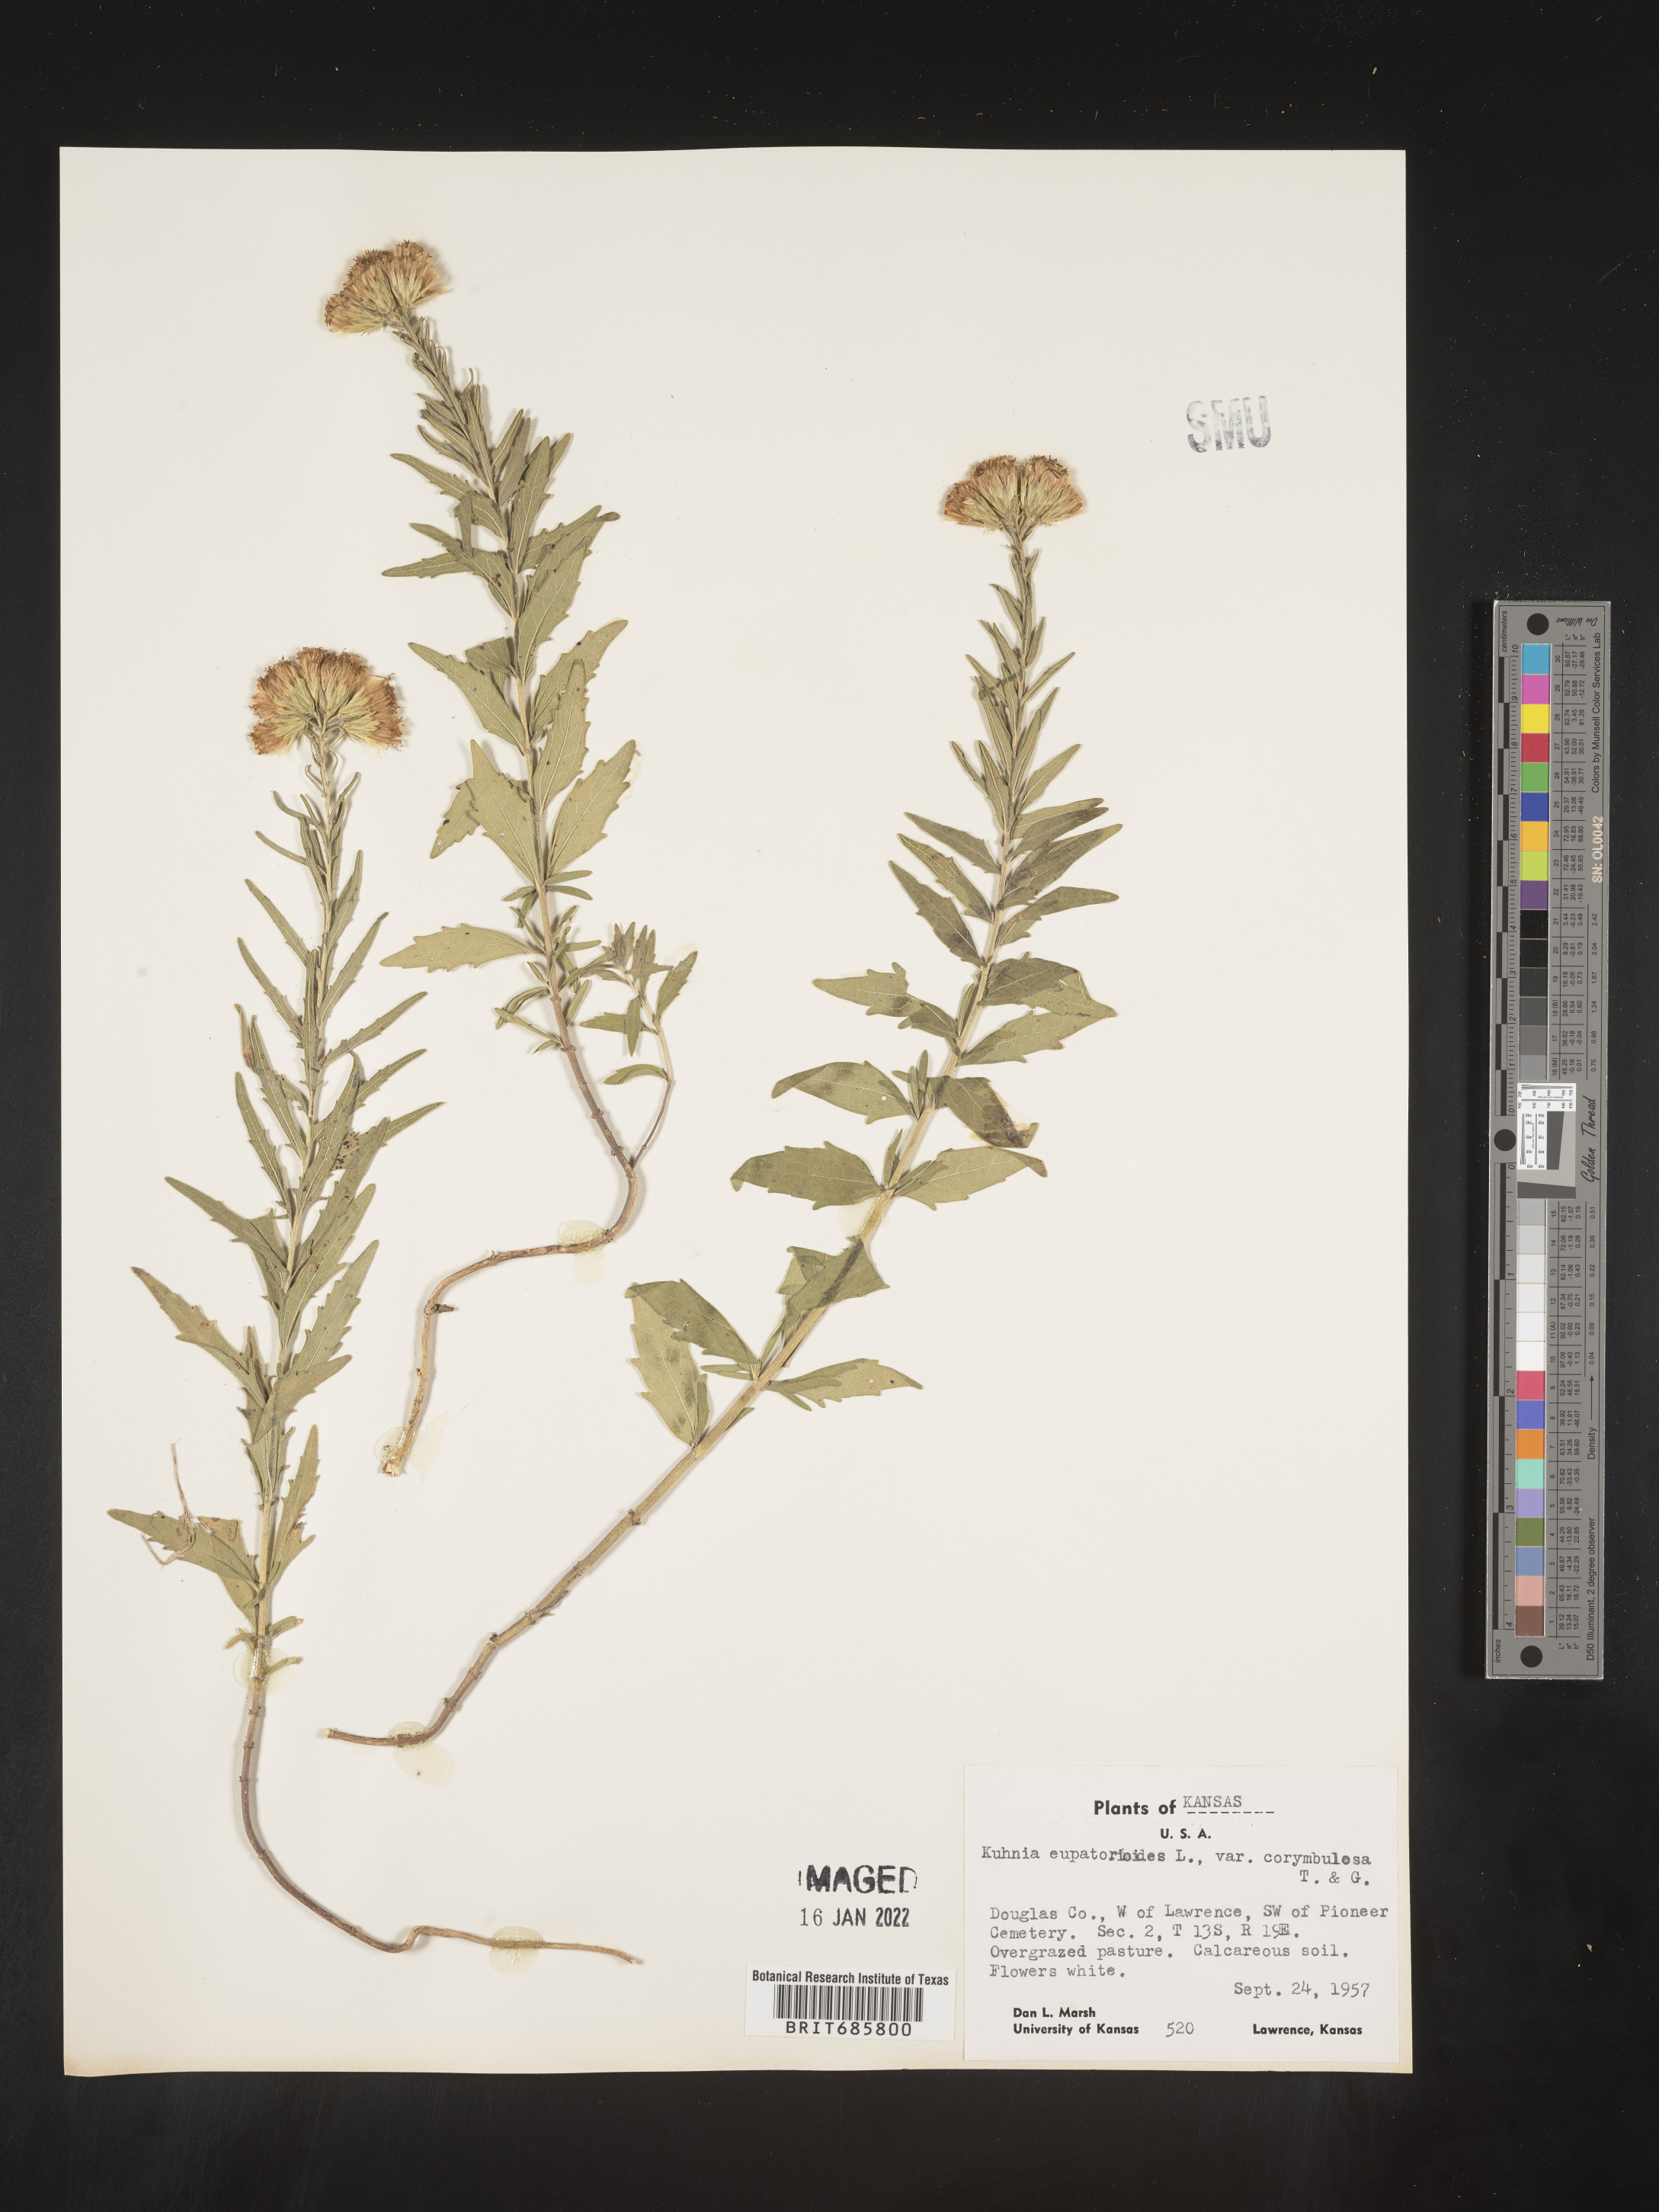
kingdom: Plantae
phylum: Tracheophyta
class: Magnoliopsida
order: Asterales
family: Asteraceae
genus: Brickellia
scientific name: Brickellia eupatorioides
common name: False boneset
